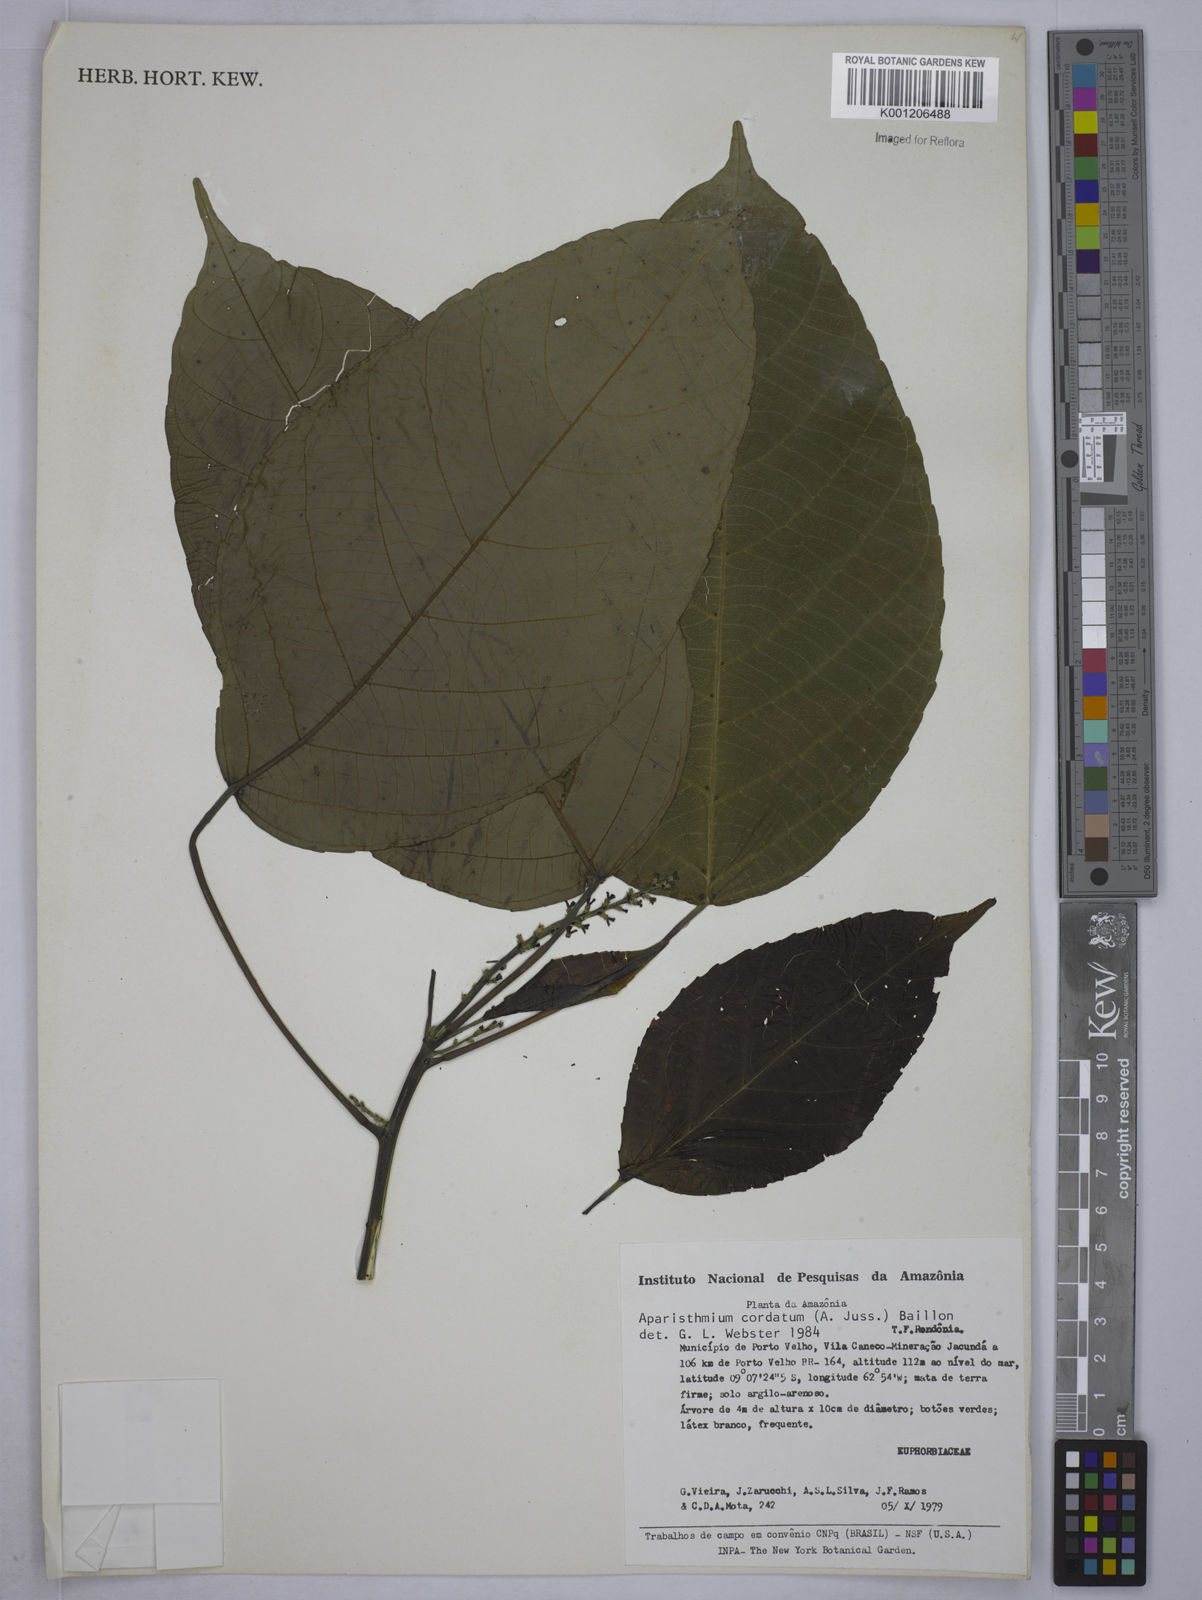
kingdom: Plantae
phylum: Tracheophyta
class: Magnoliopsida
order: Malpighiales
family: Euphorbiaceae
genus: Aparisthmium
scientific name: Aparisthmium cordatum
